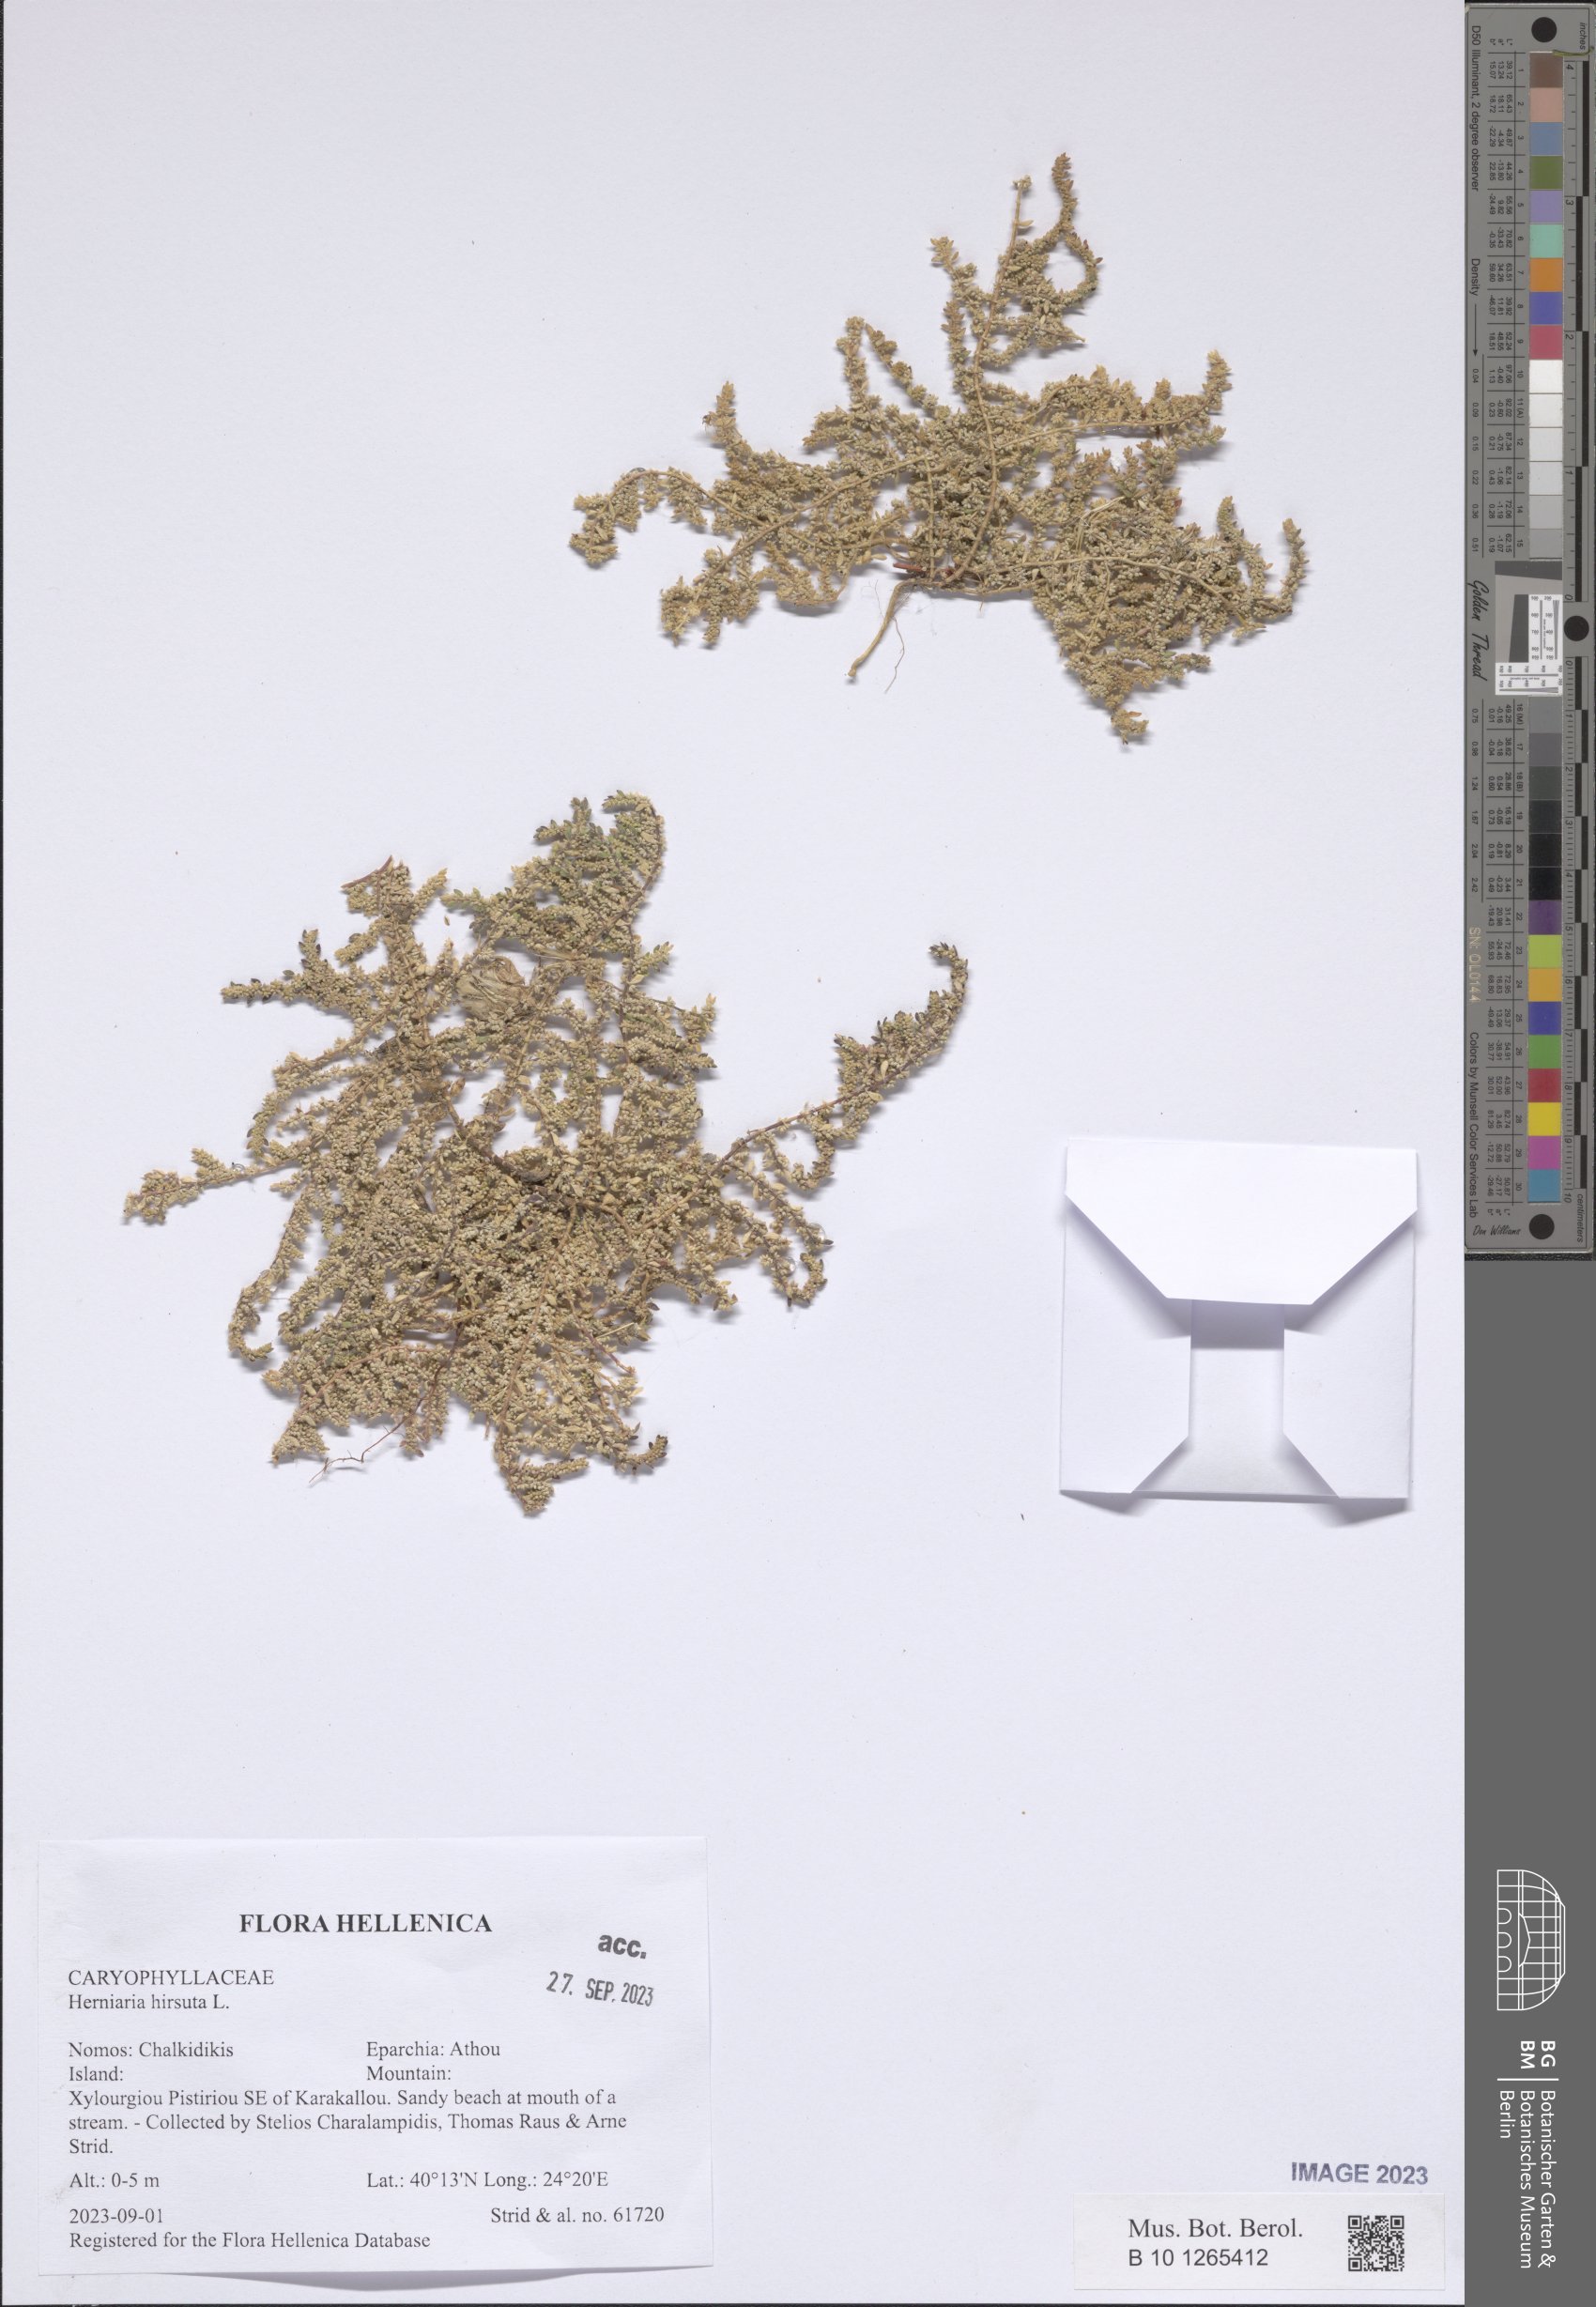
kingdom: Plantae
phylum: Tracheophyta
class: Magnoliopsida
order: Caryophyllales
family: Caryophyllaceae
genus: Herniaria
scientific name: Herniaria hirsuta
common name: Hairy rupturewort
